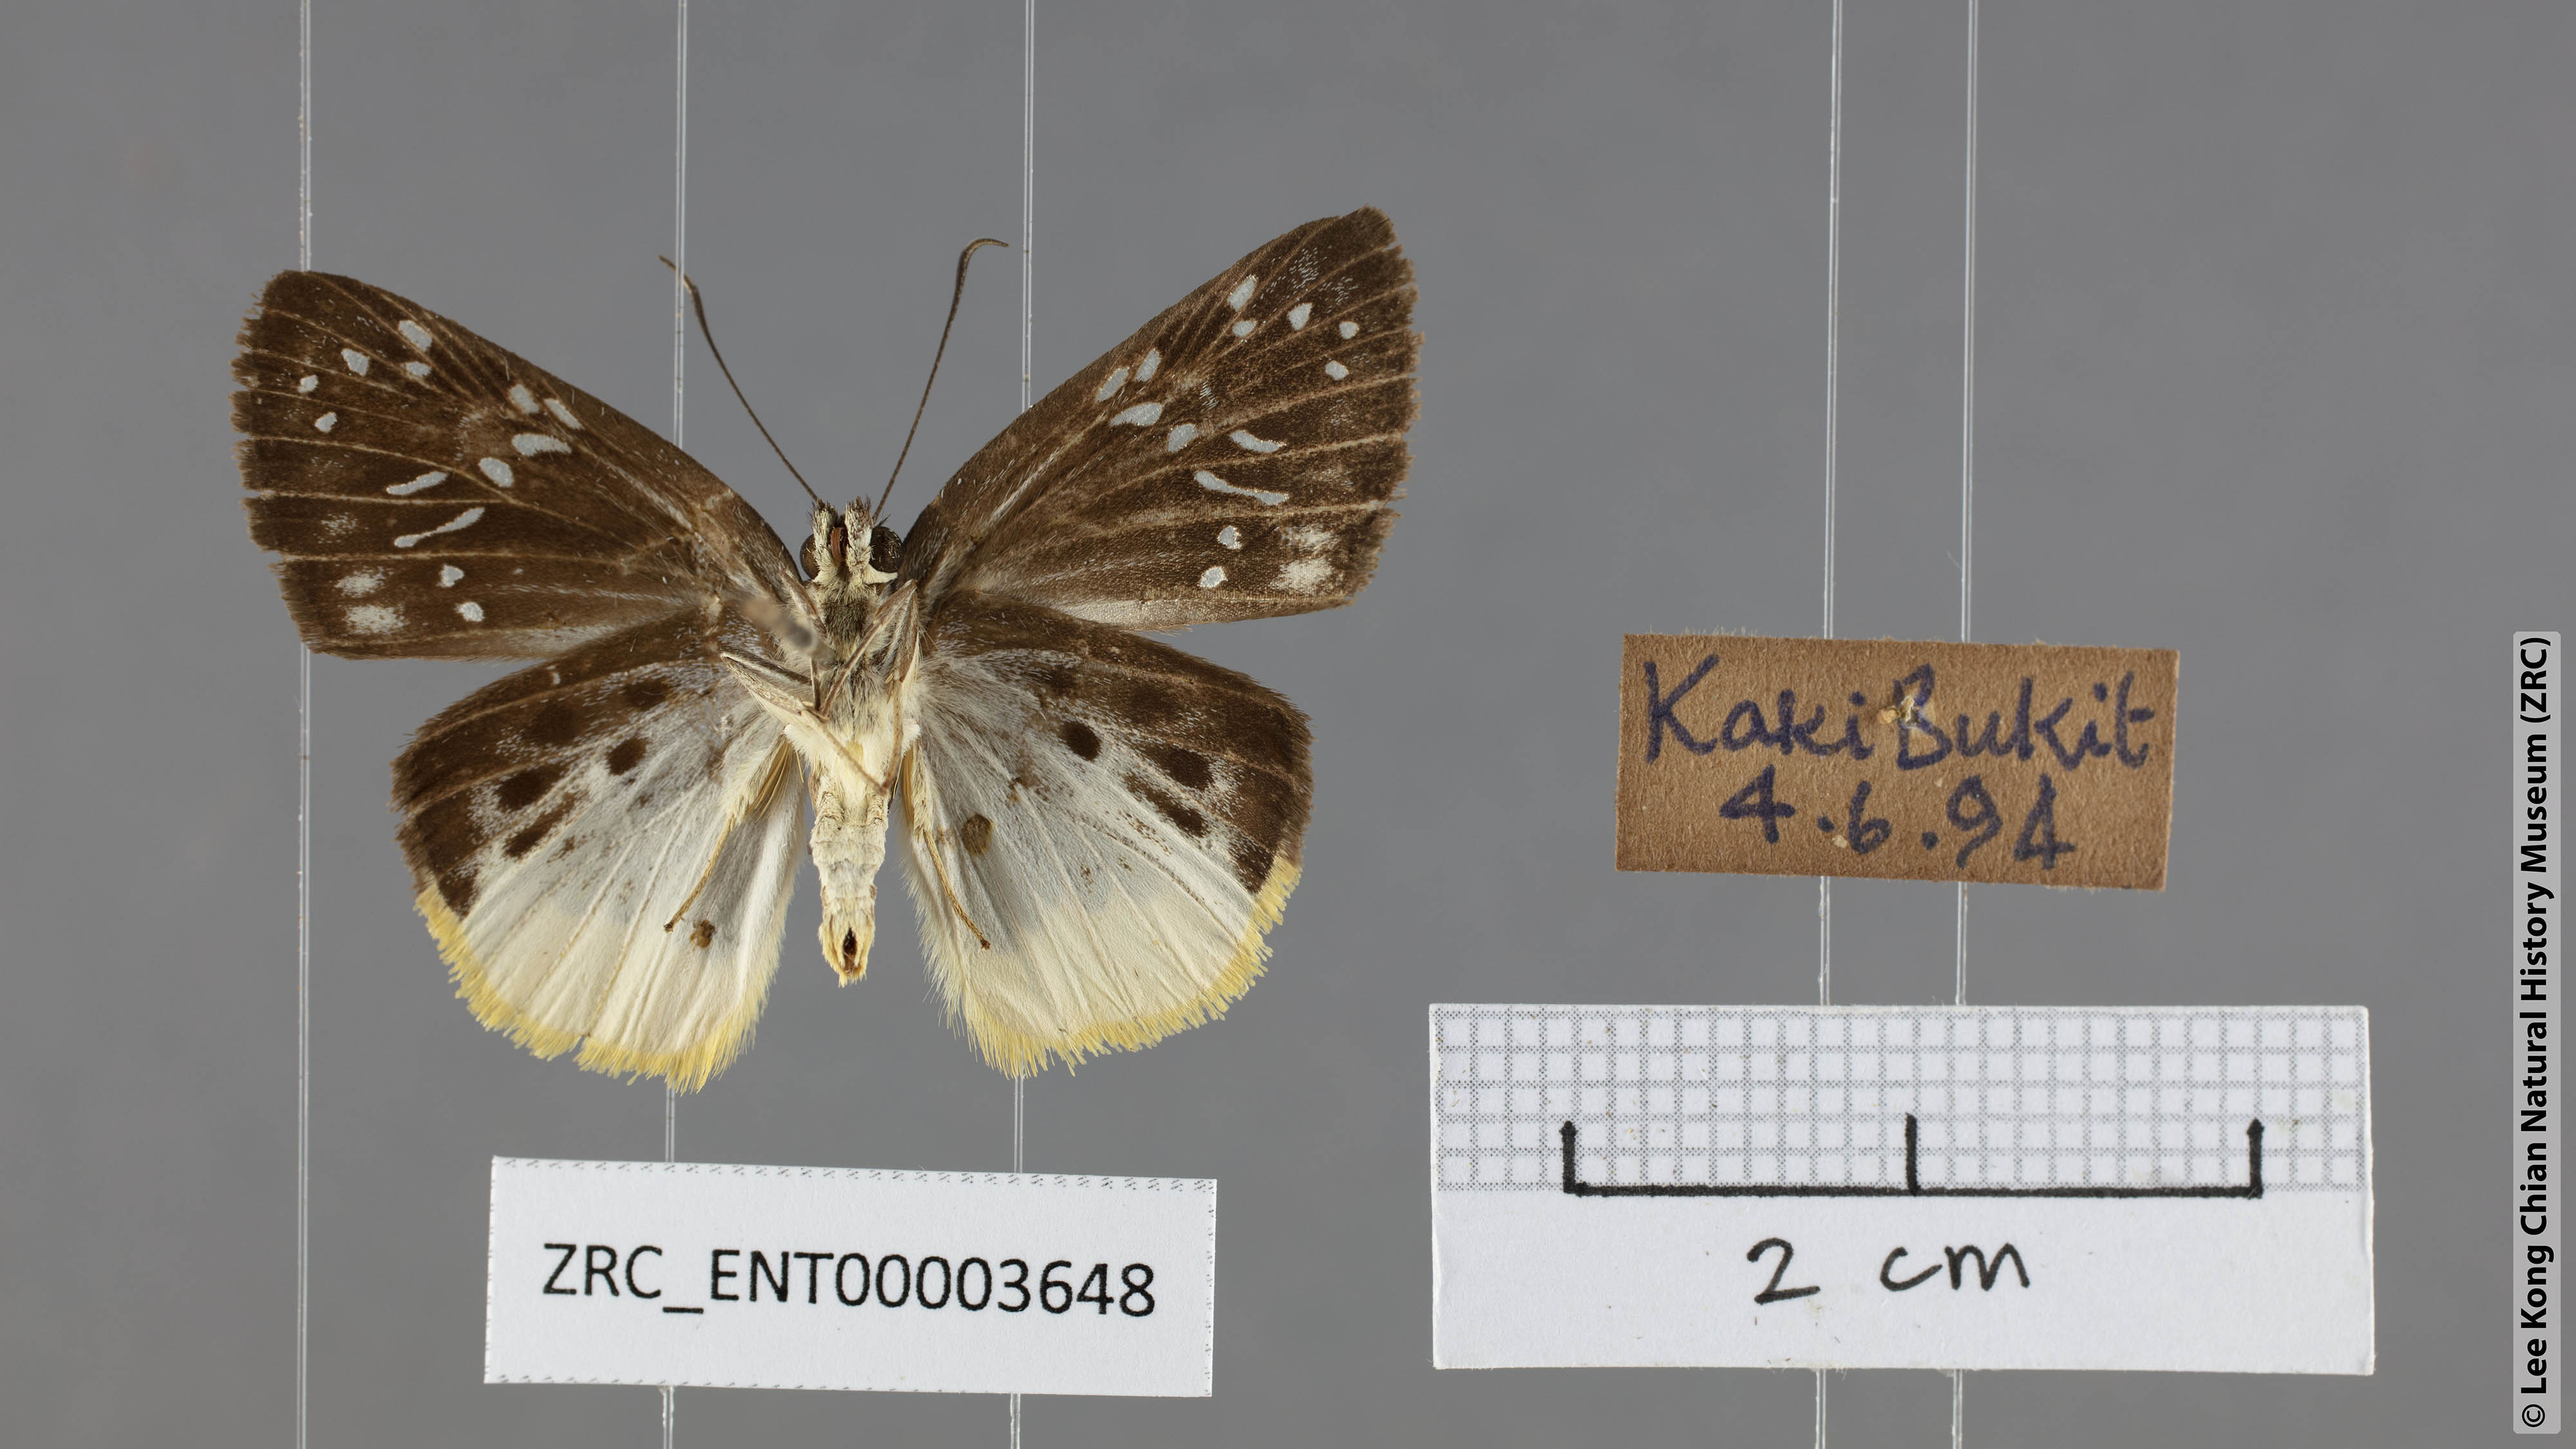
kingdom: Animalia
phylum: Arthropoda
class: Insecta
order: Lepidoptera
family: Hesperiidae
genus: Mooreana
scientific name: Mooreana trichoneura
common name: Yellow flat
